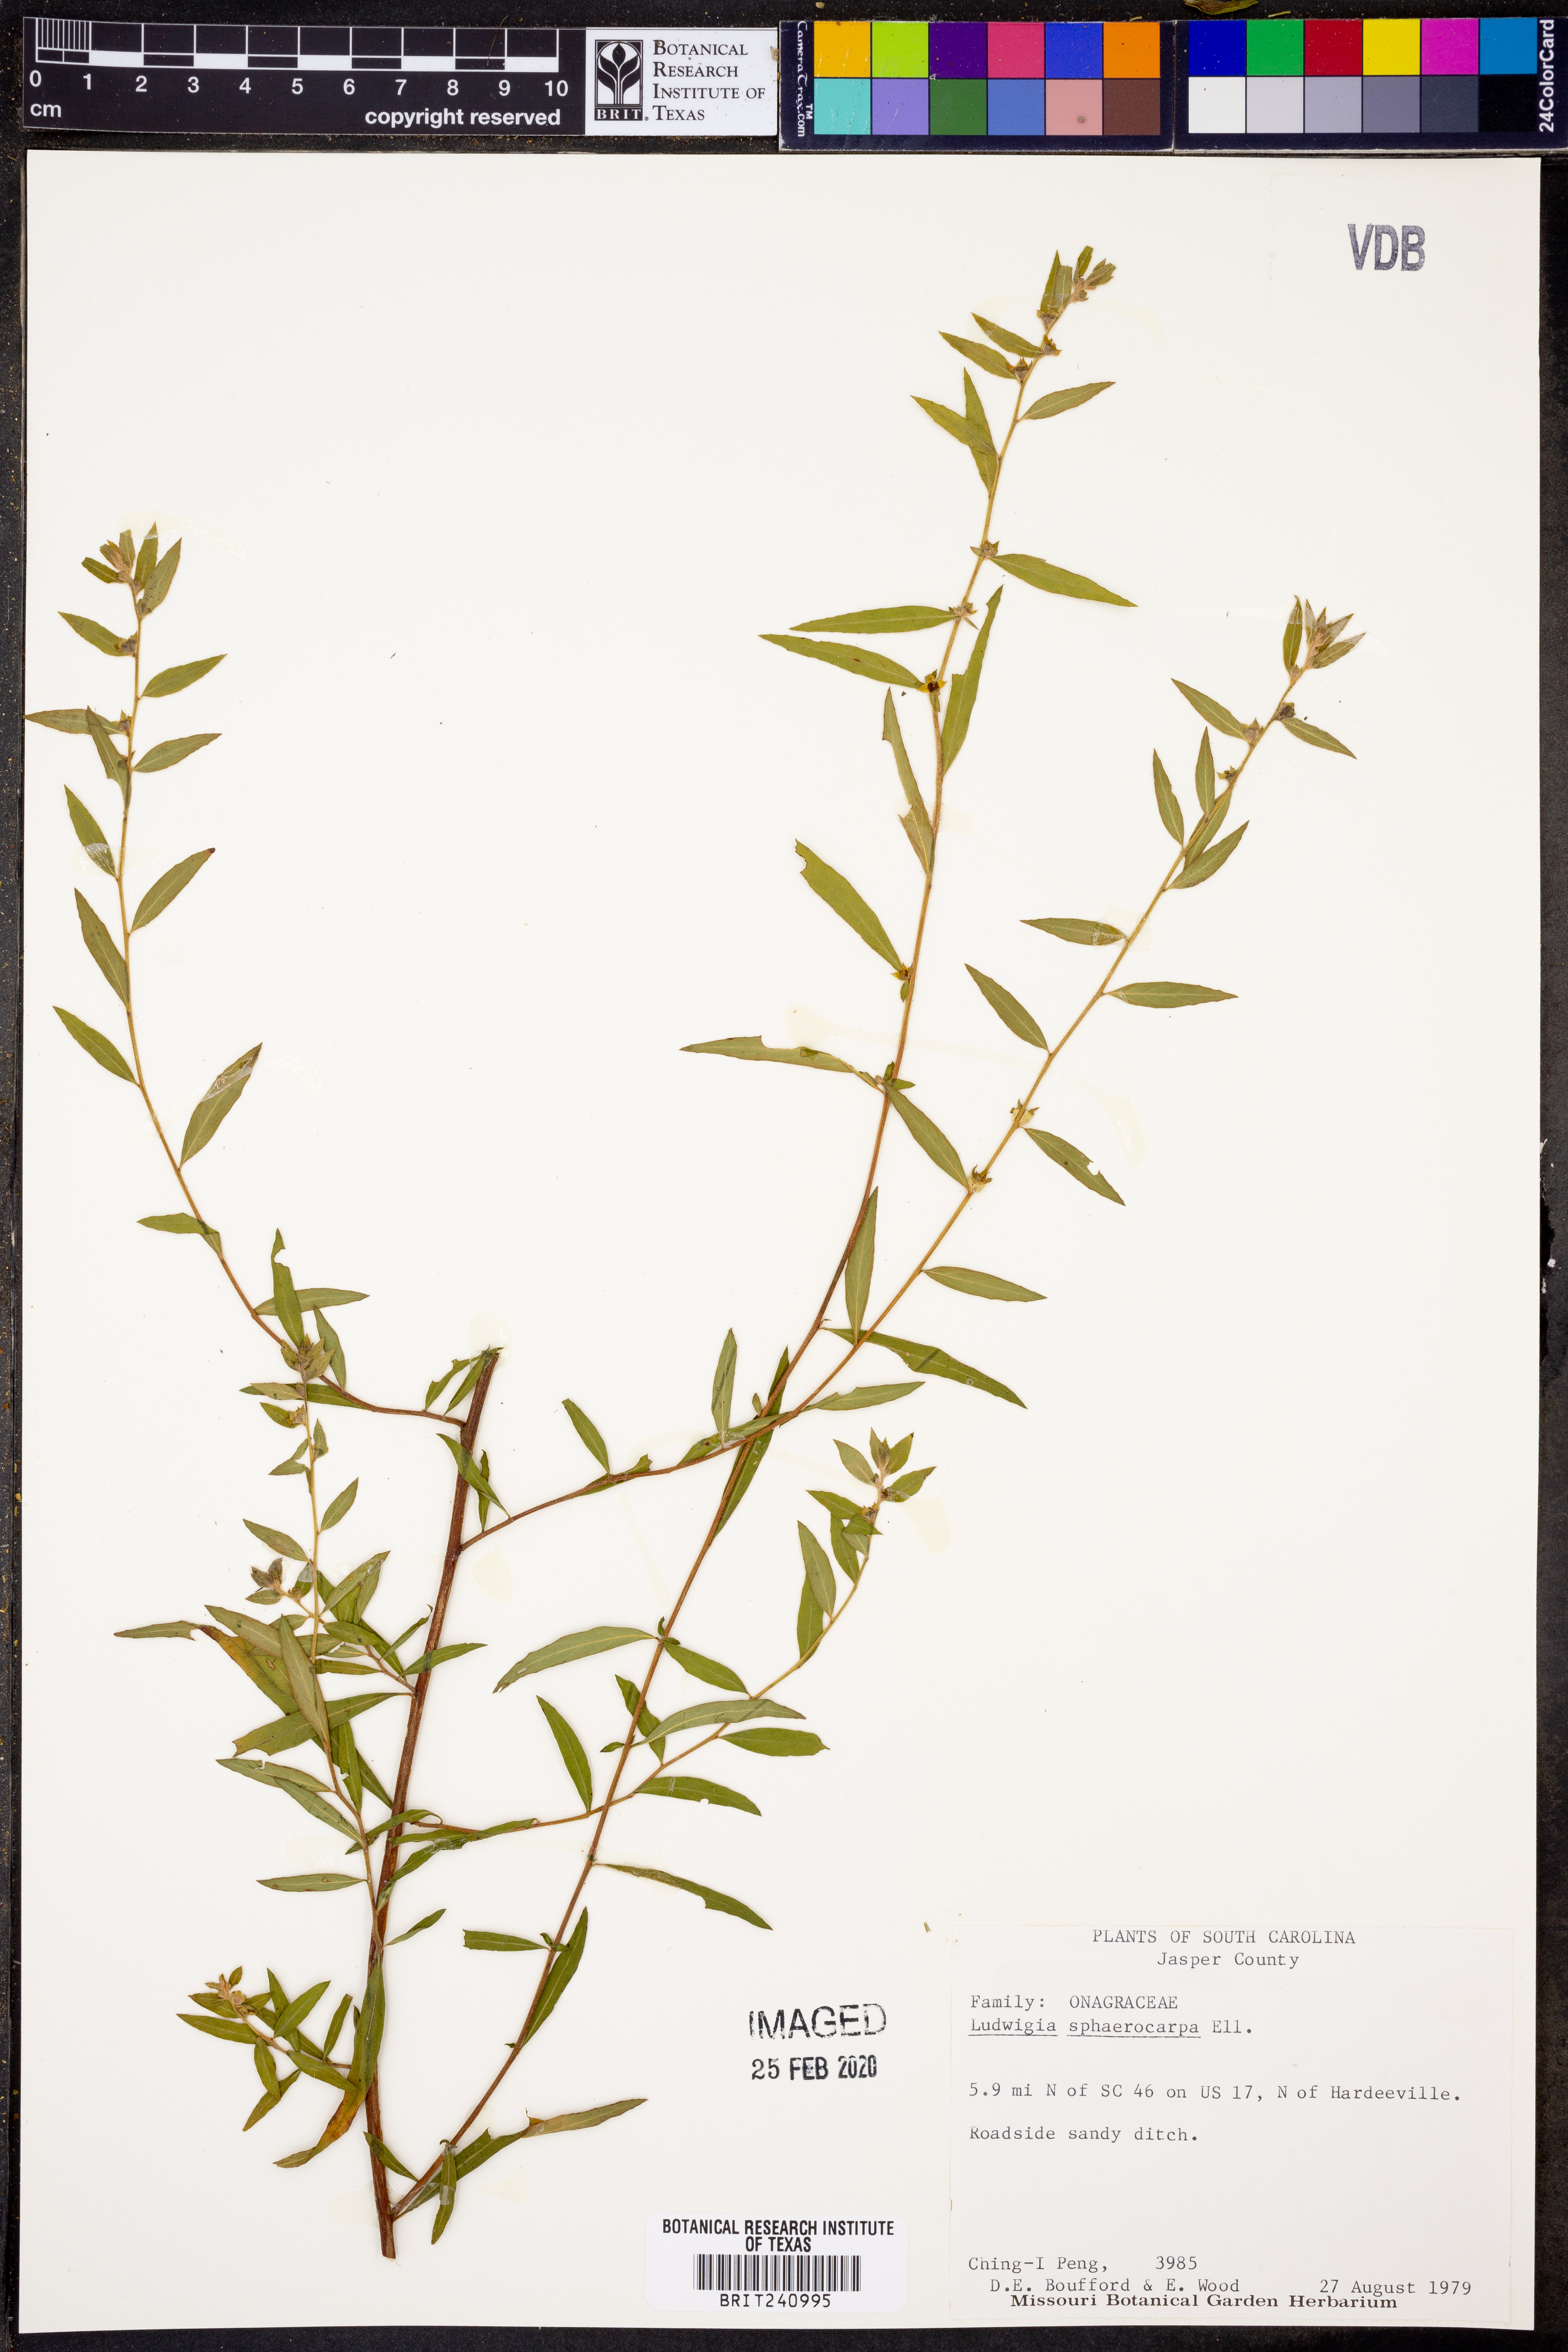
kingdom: Plantae
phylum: Tracheophyta
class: Magnoliopsida
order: Myrtales
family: Onagraceae
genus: Ludwigia
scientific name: Ludwigia sphaerocarpa
